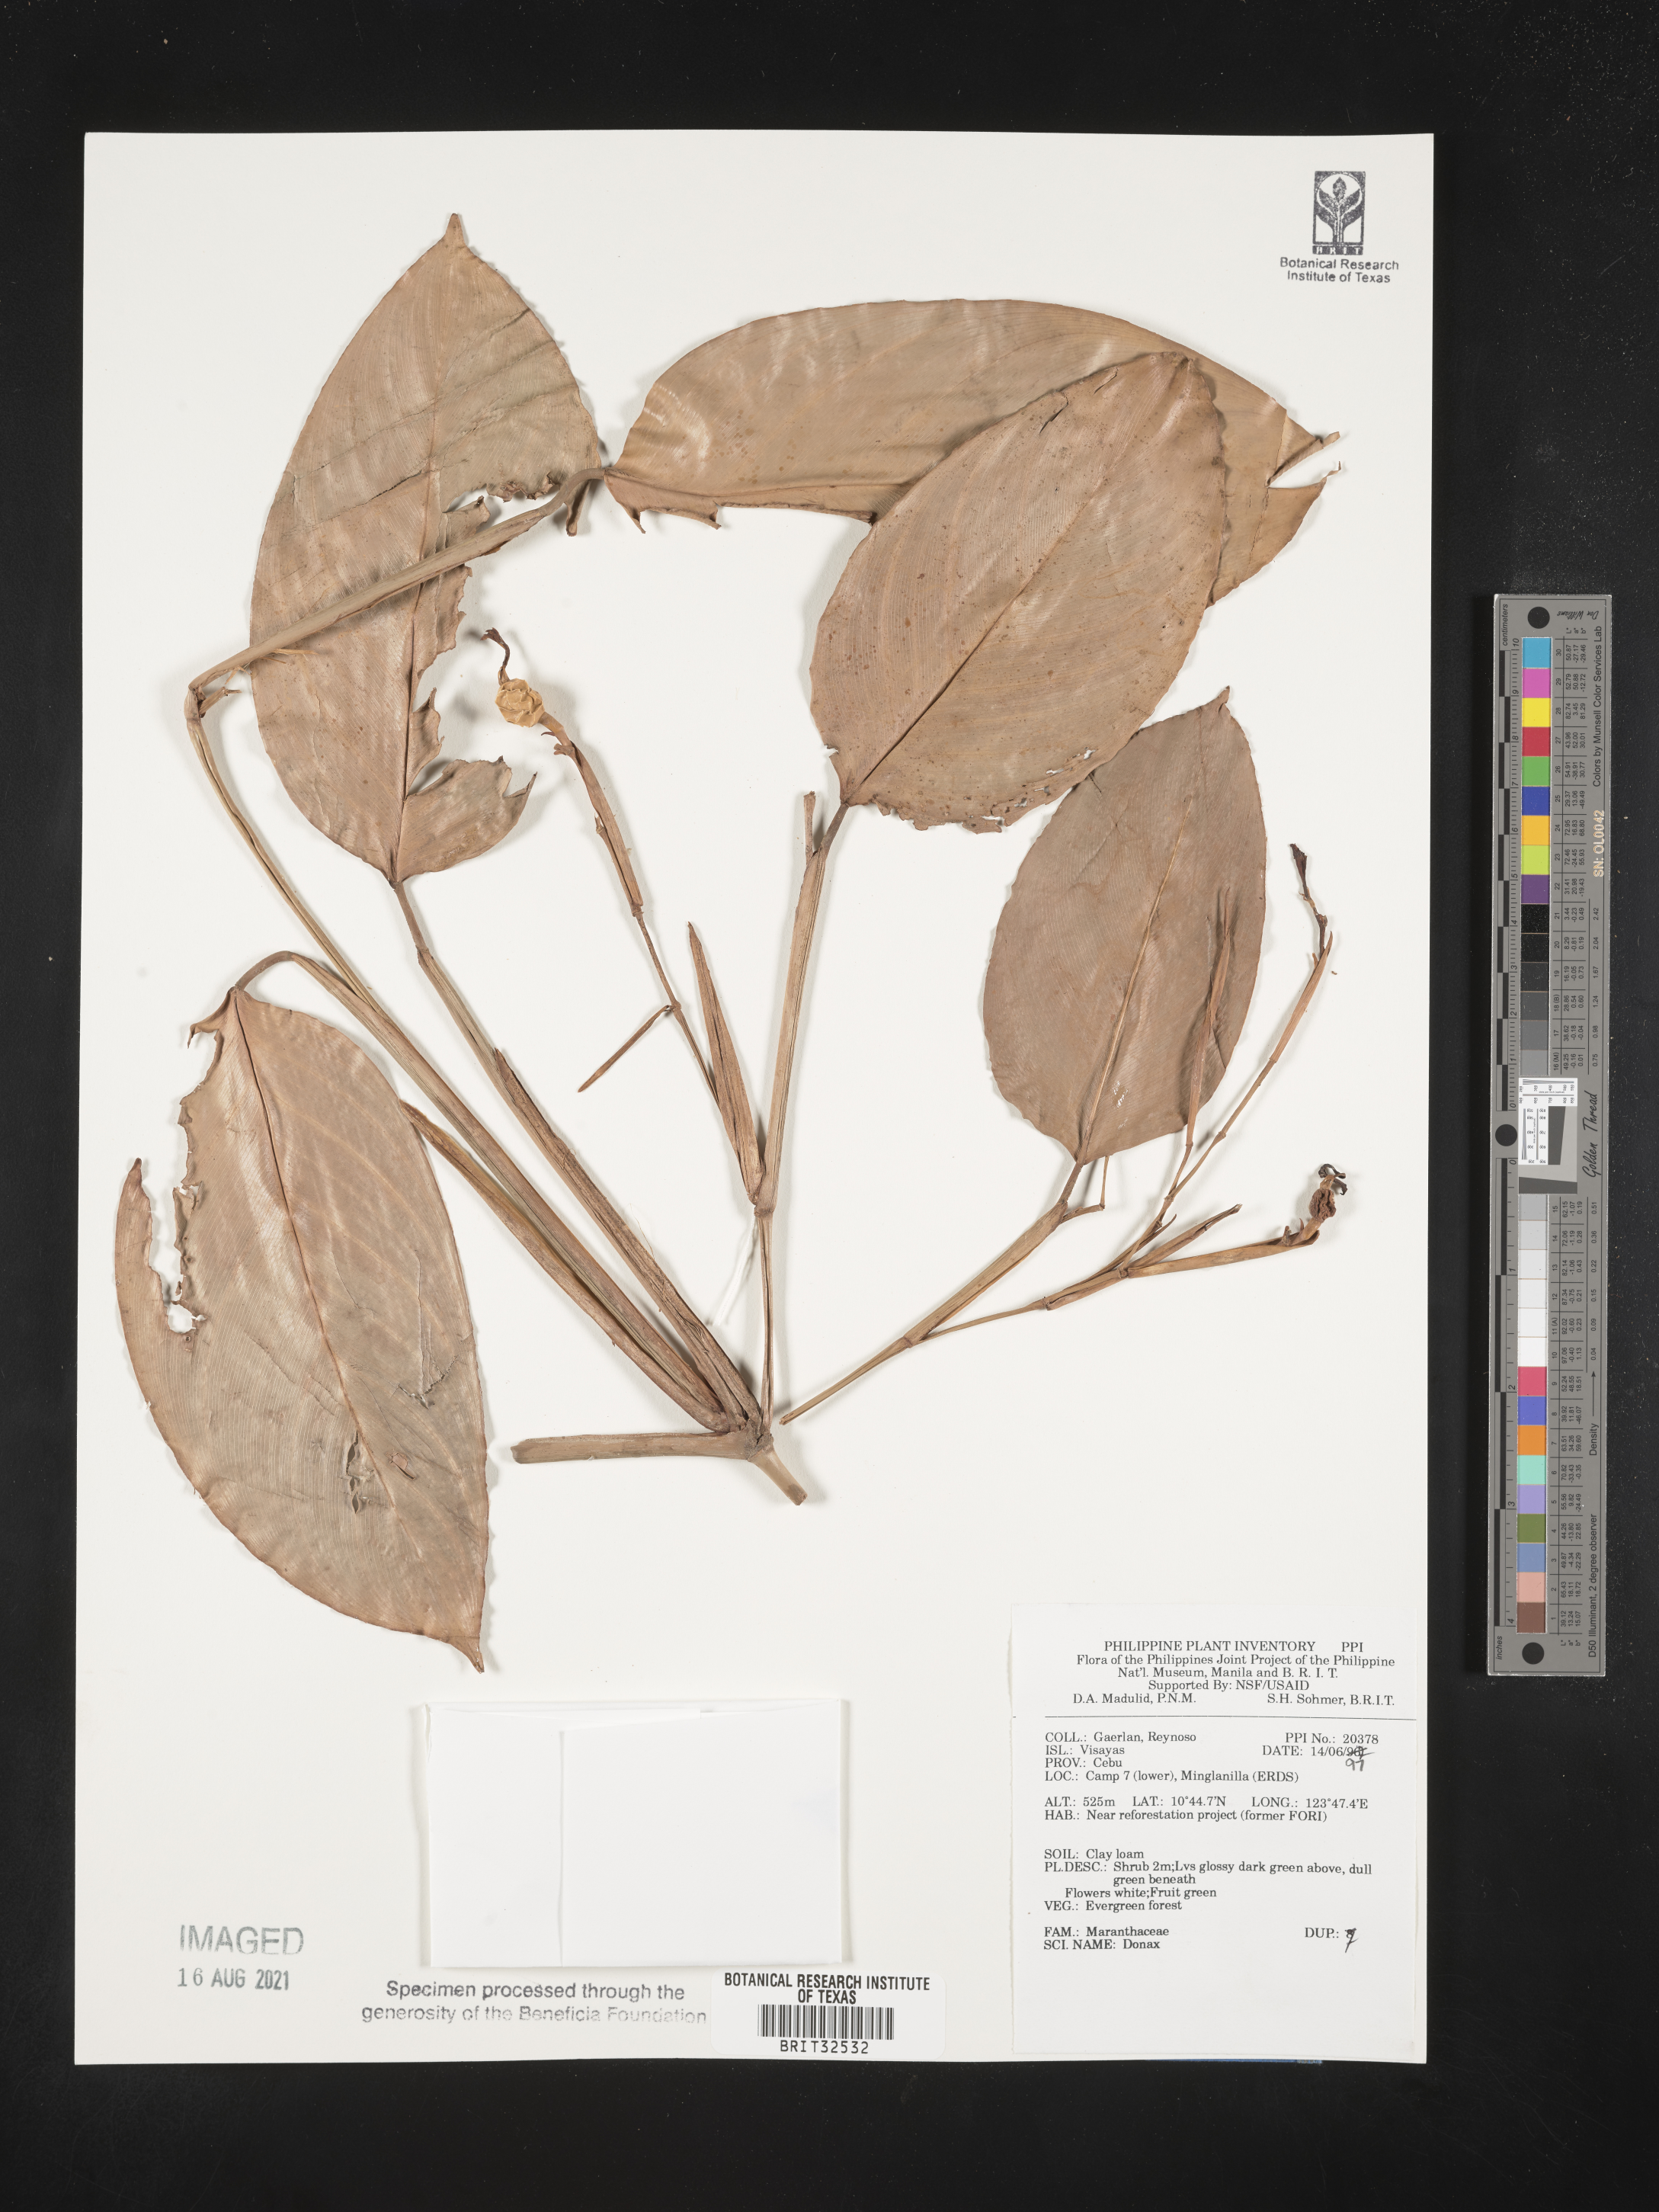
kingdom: Plantae
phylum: Tracheophyta
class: Liliopsida
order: Zingiberales
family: Marantaceae
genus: Donax
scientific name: Donax
